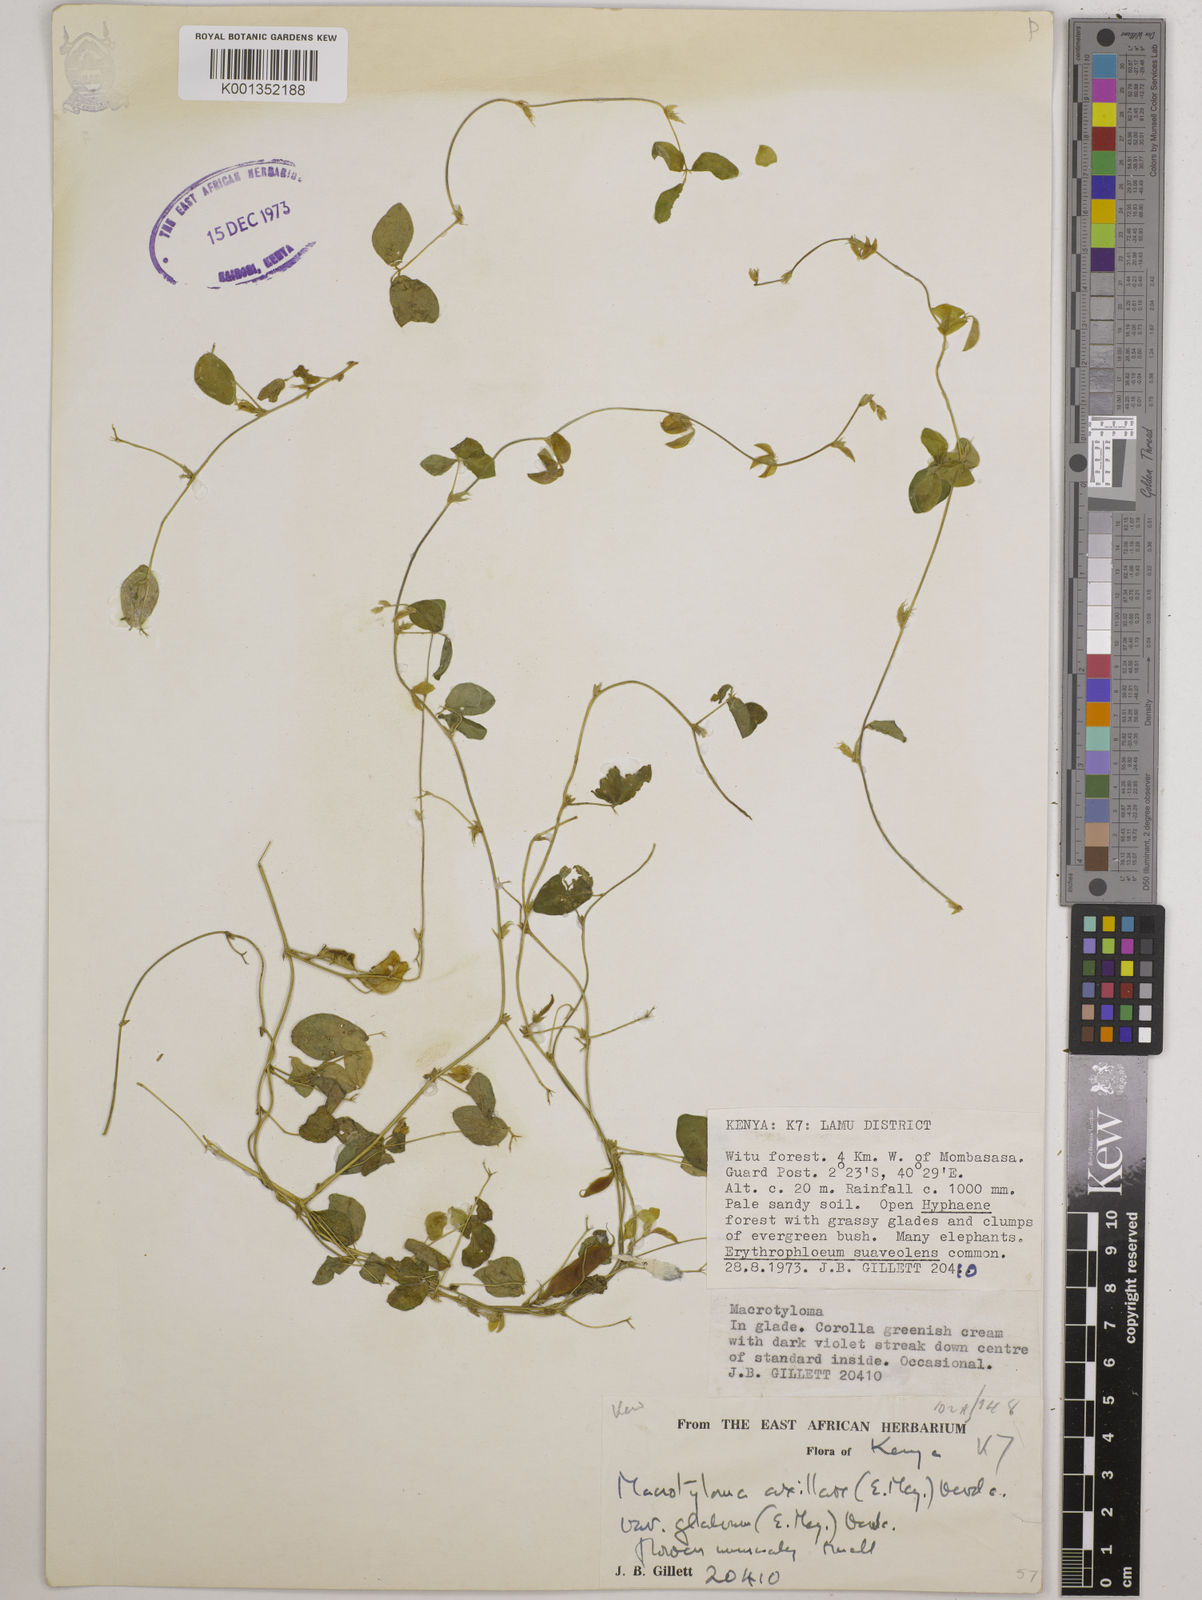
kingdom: Plantae
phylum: Tracheophyta
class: Magnoliopsida
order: Fabales
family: Fabaceae
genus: Macrotyloma
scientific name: Macrotyloma
